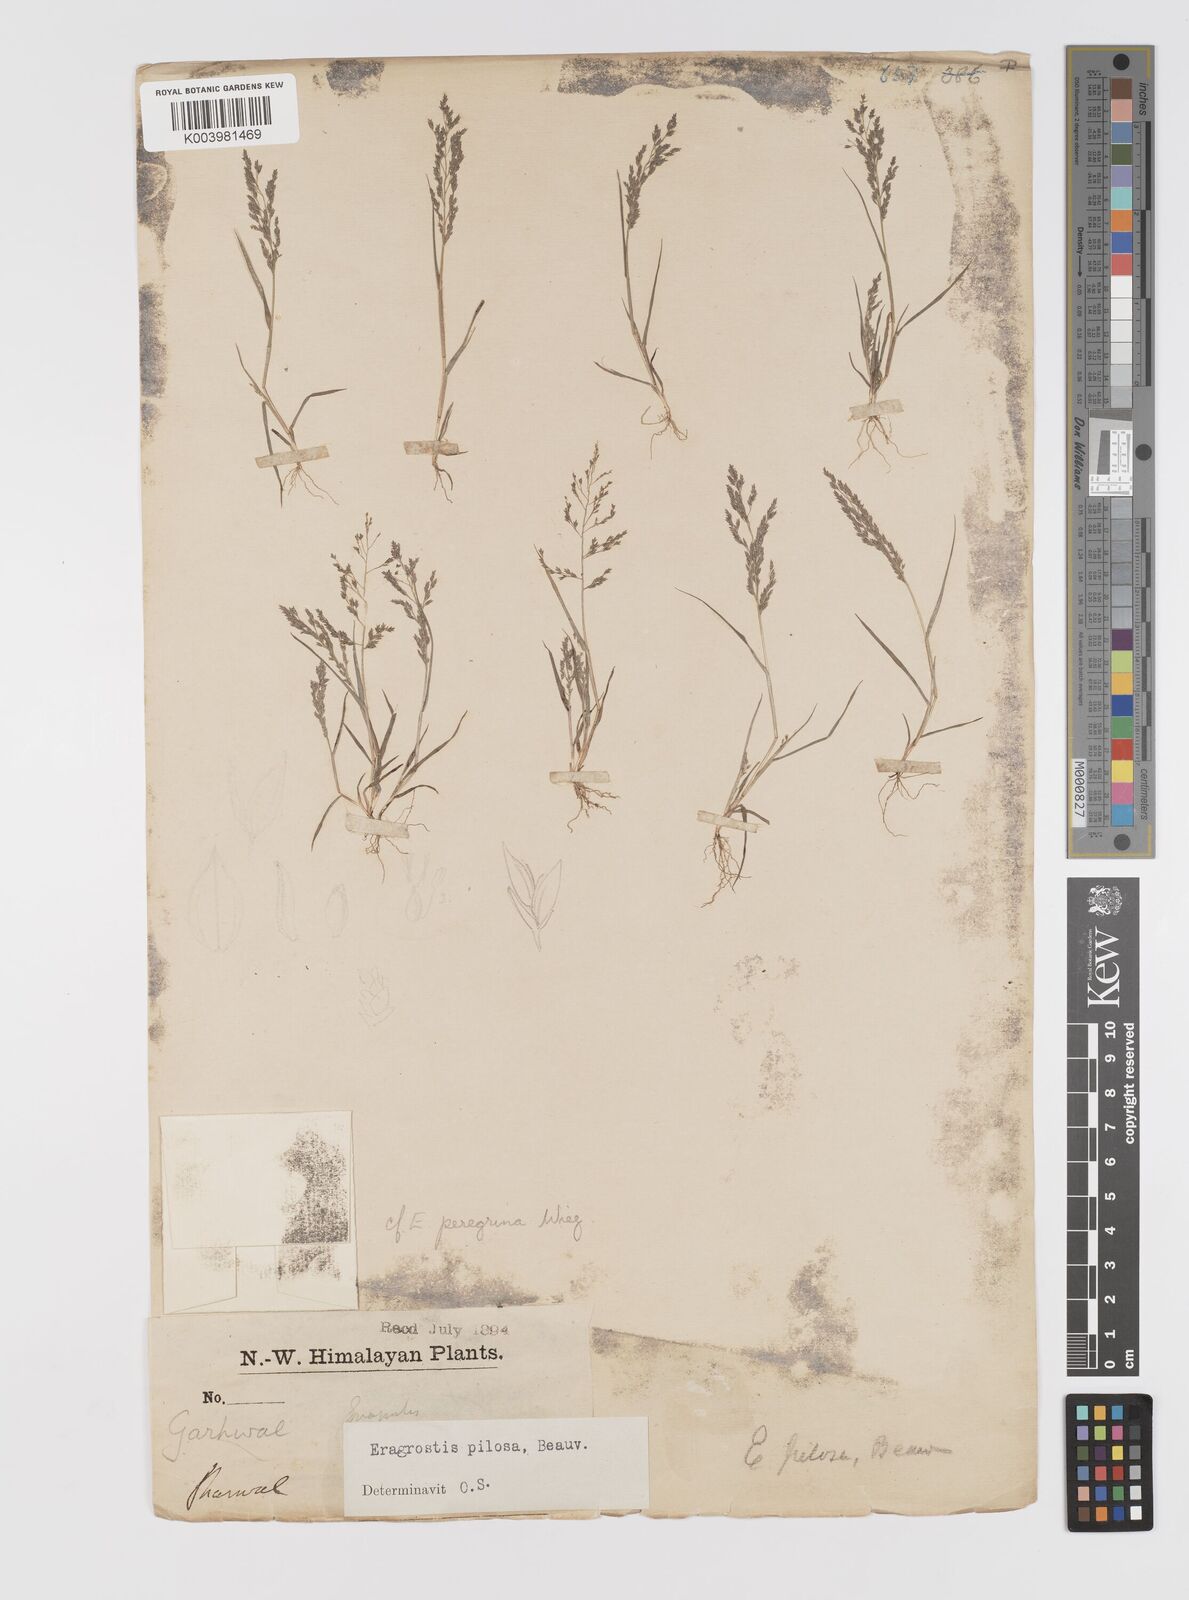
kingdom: Plantae
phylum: Tracheophyta
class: Liliopsida
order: Poales
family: Poaceae
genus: Eragrostis
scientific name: Eragrostis pilosa
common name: Indian lovegrass
